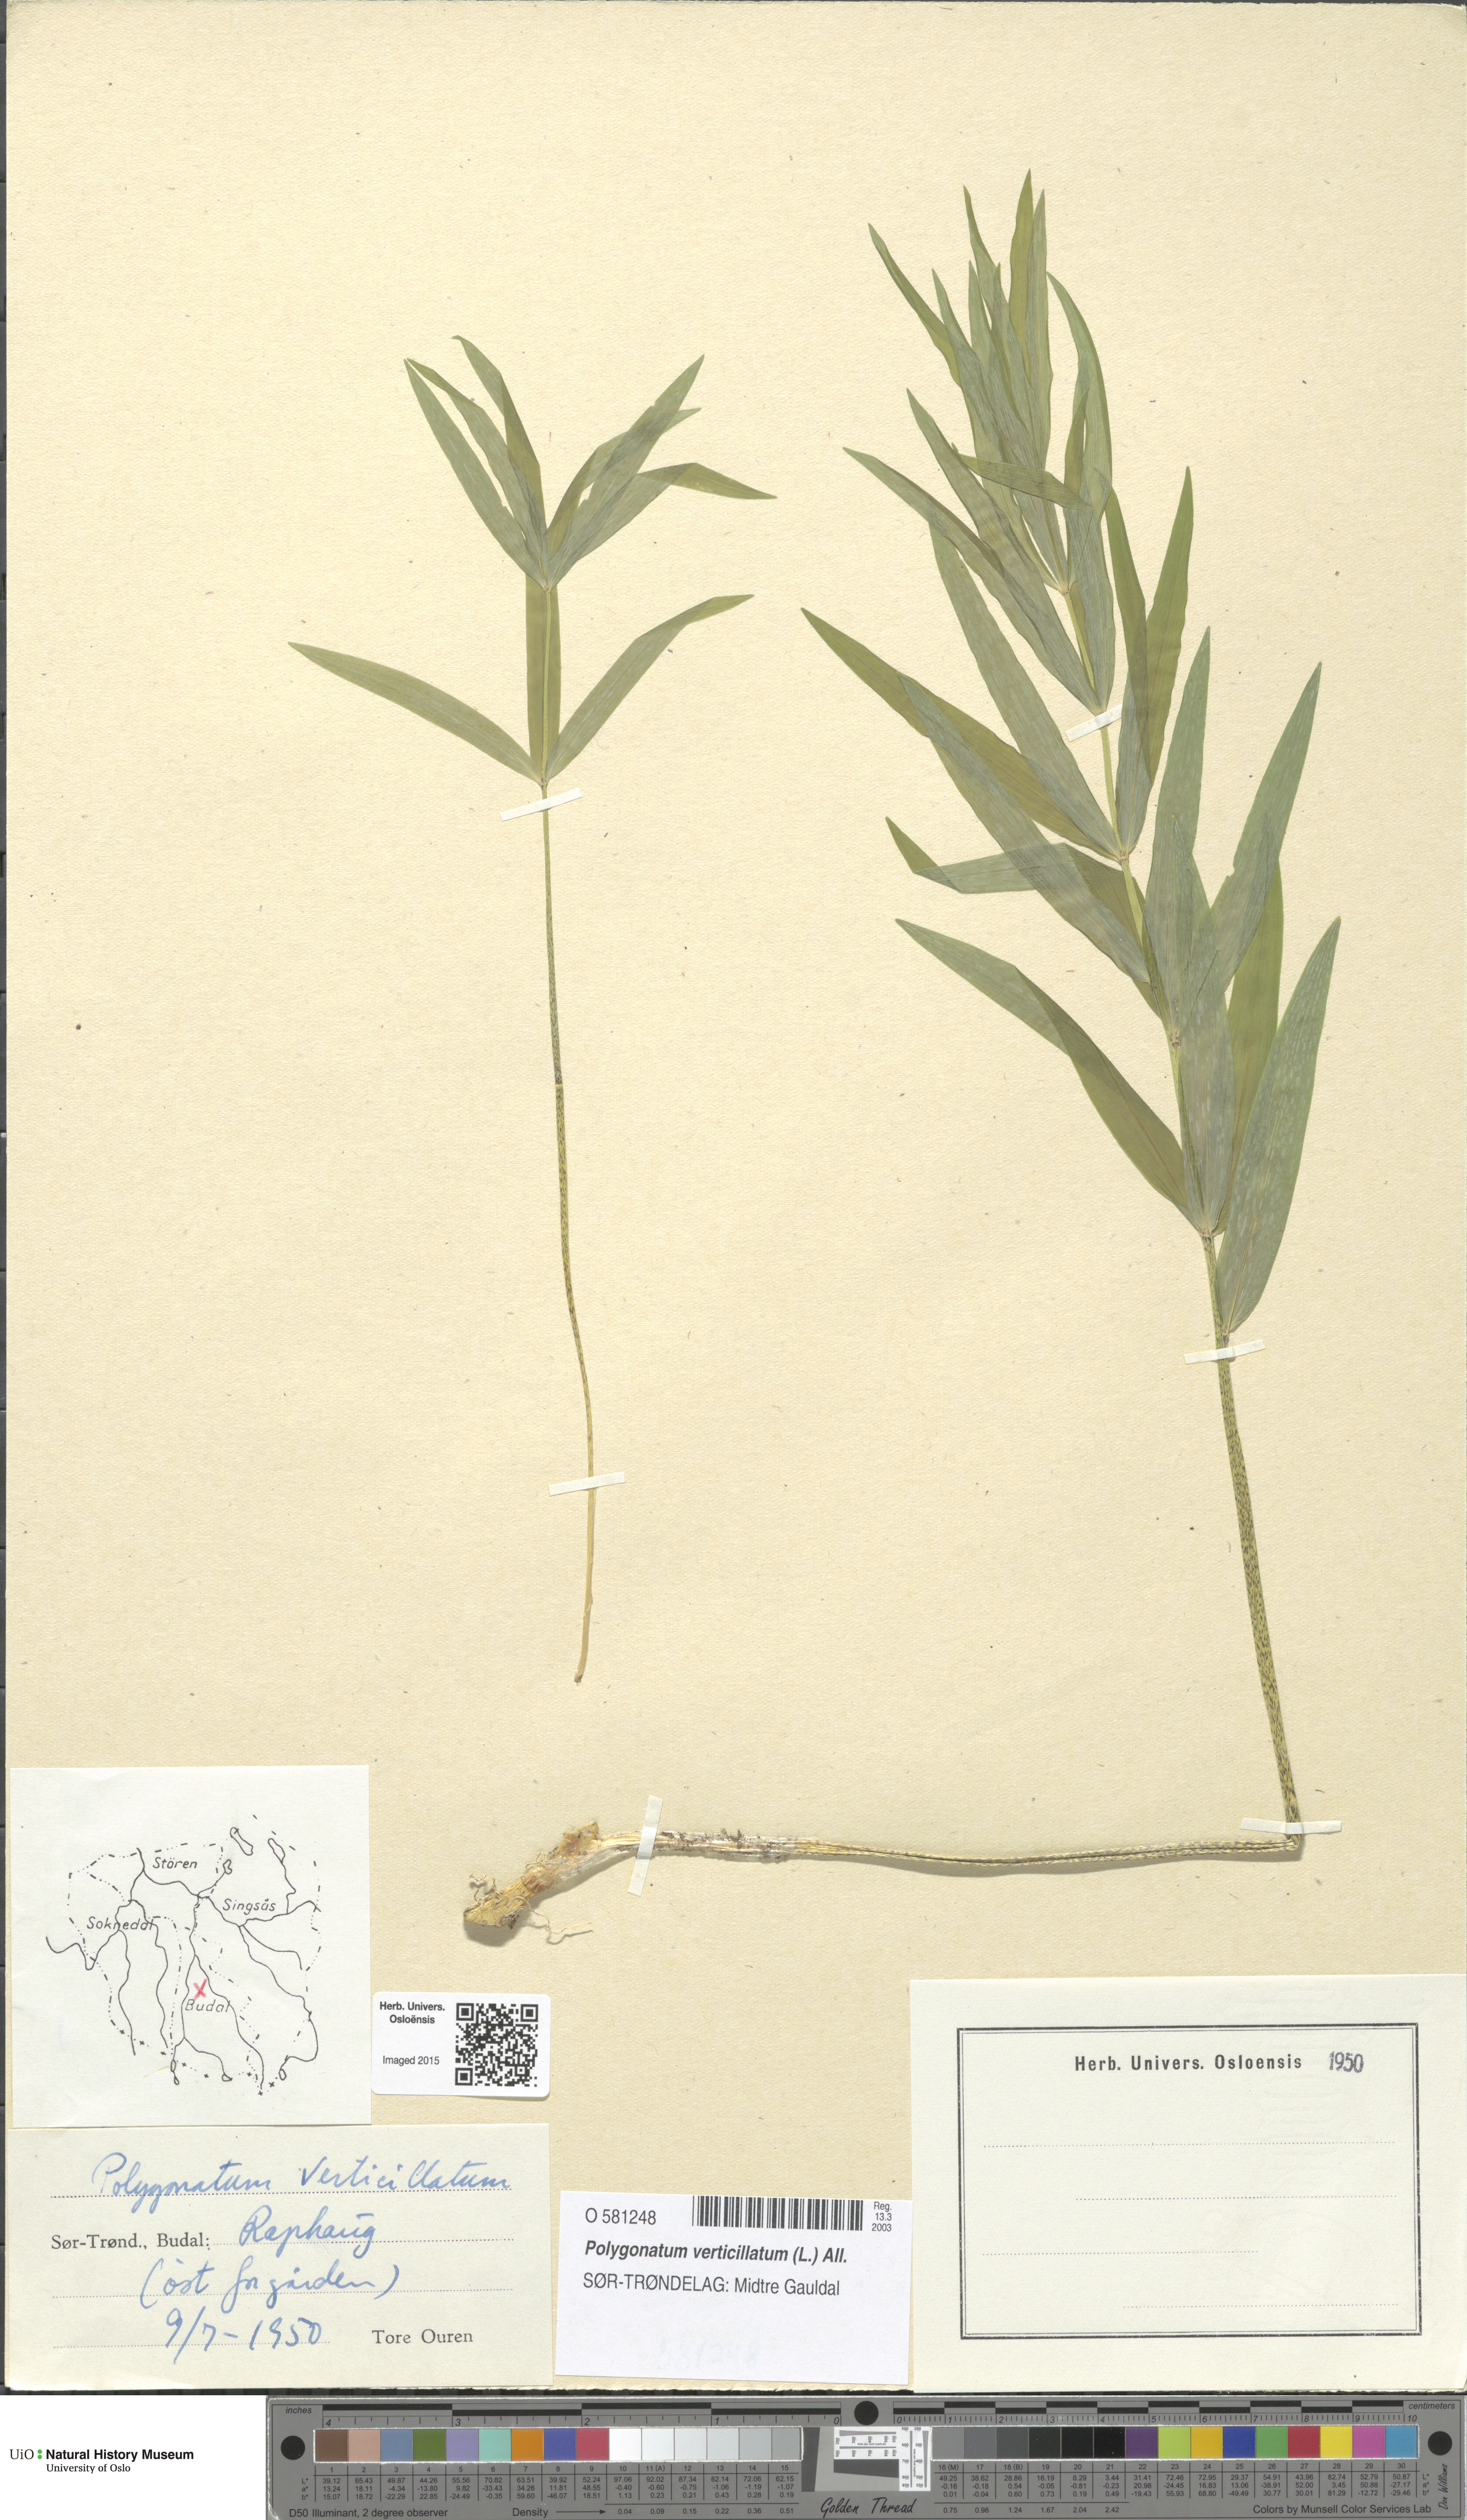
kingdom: Plantae
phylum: Tracheophyta
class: Liliopsida
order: Asparagales
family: Asparagaceae
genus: Polygonatum
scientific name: Polygonatum verticillatum
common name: Whorled solomon's-seal
